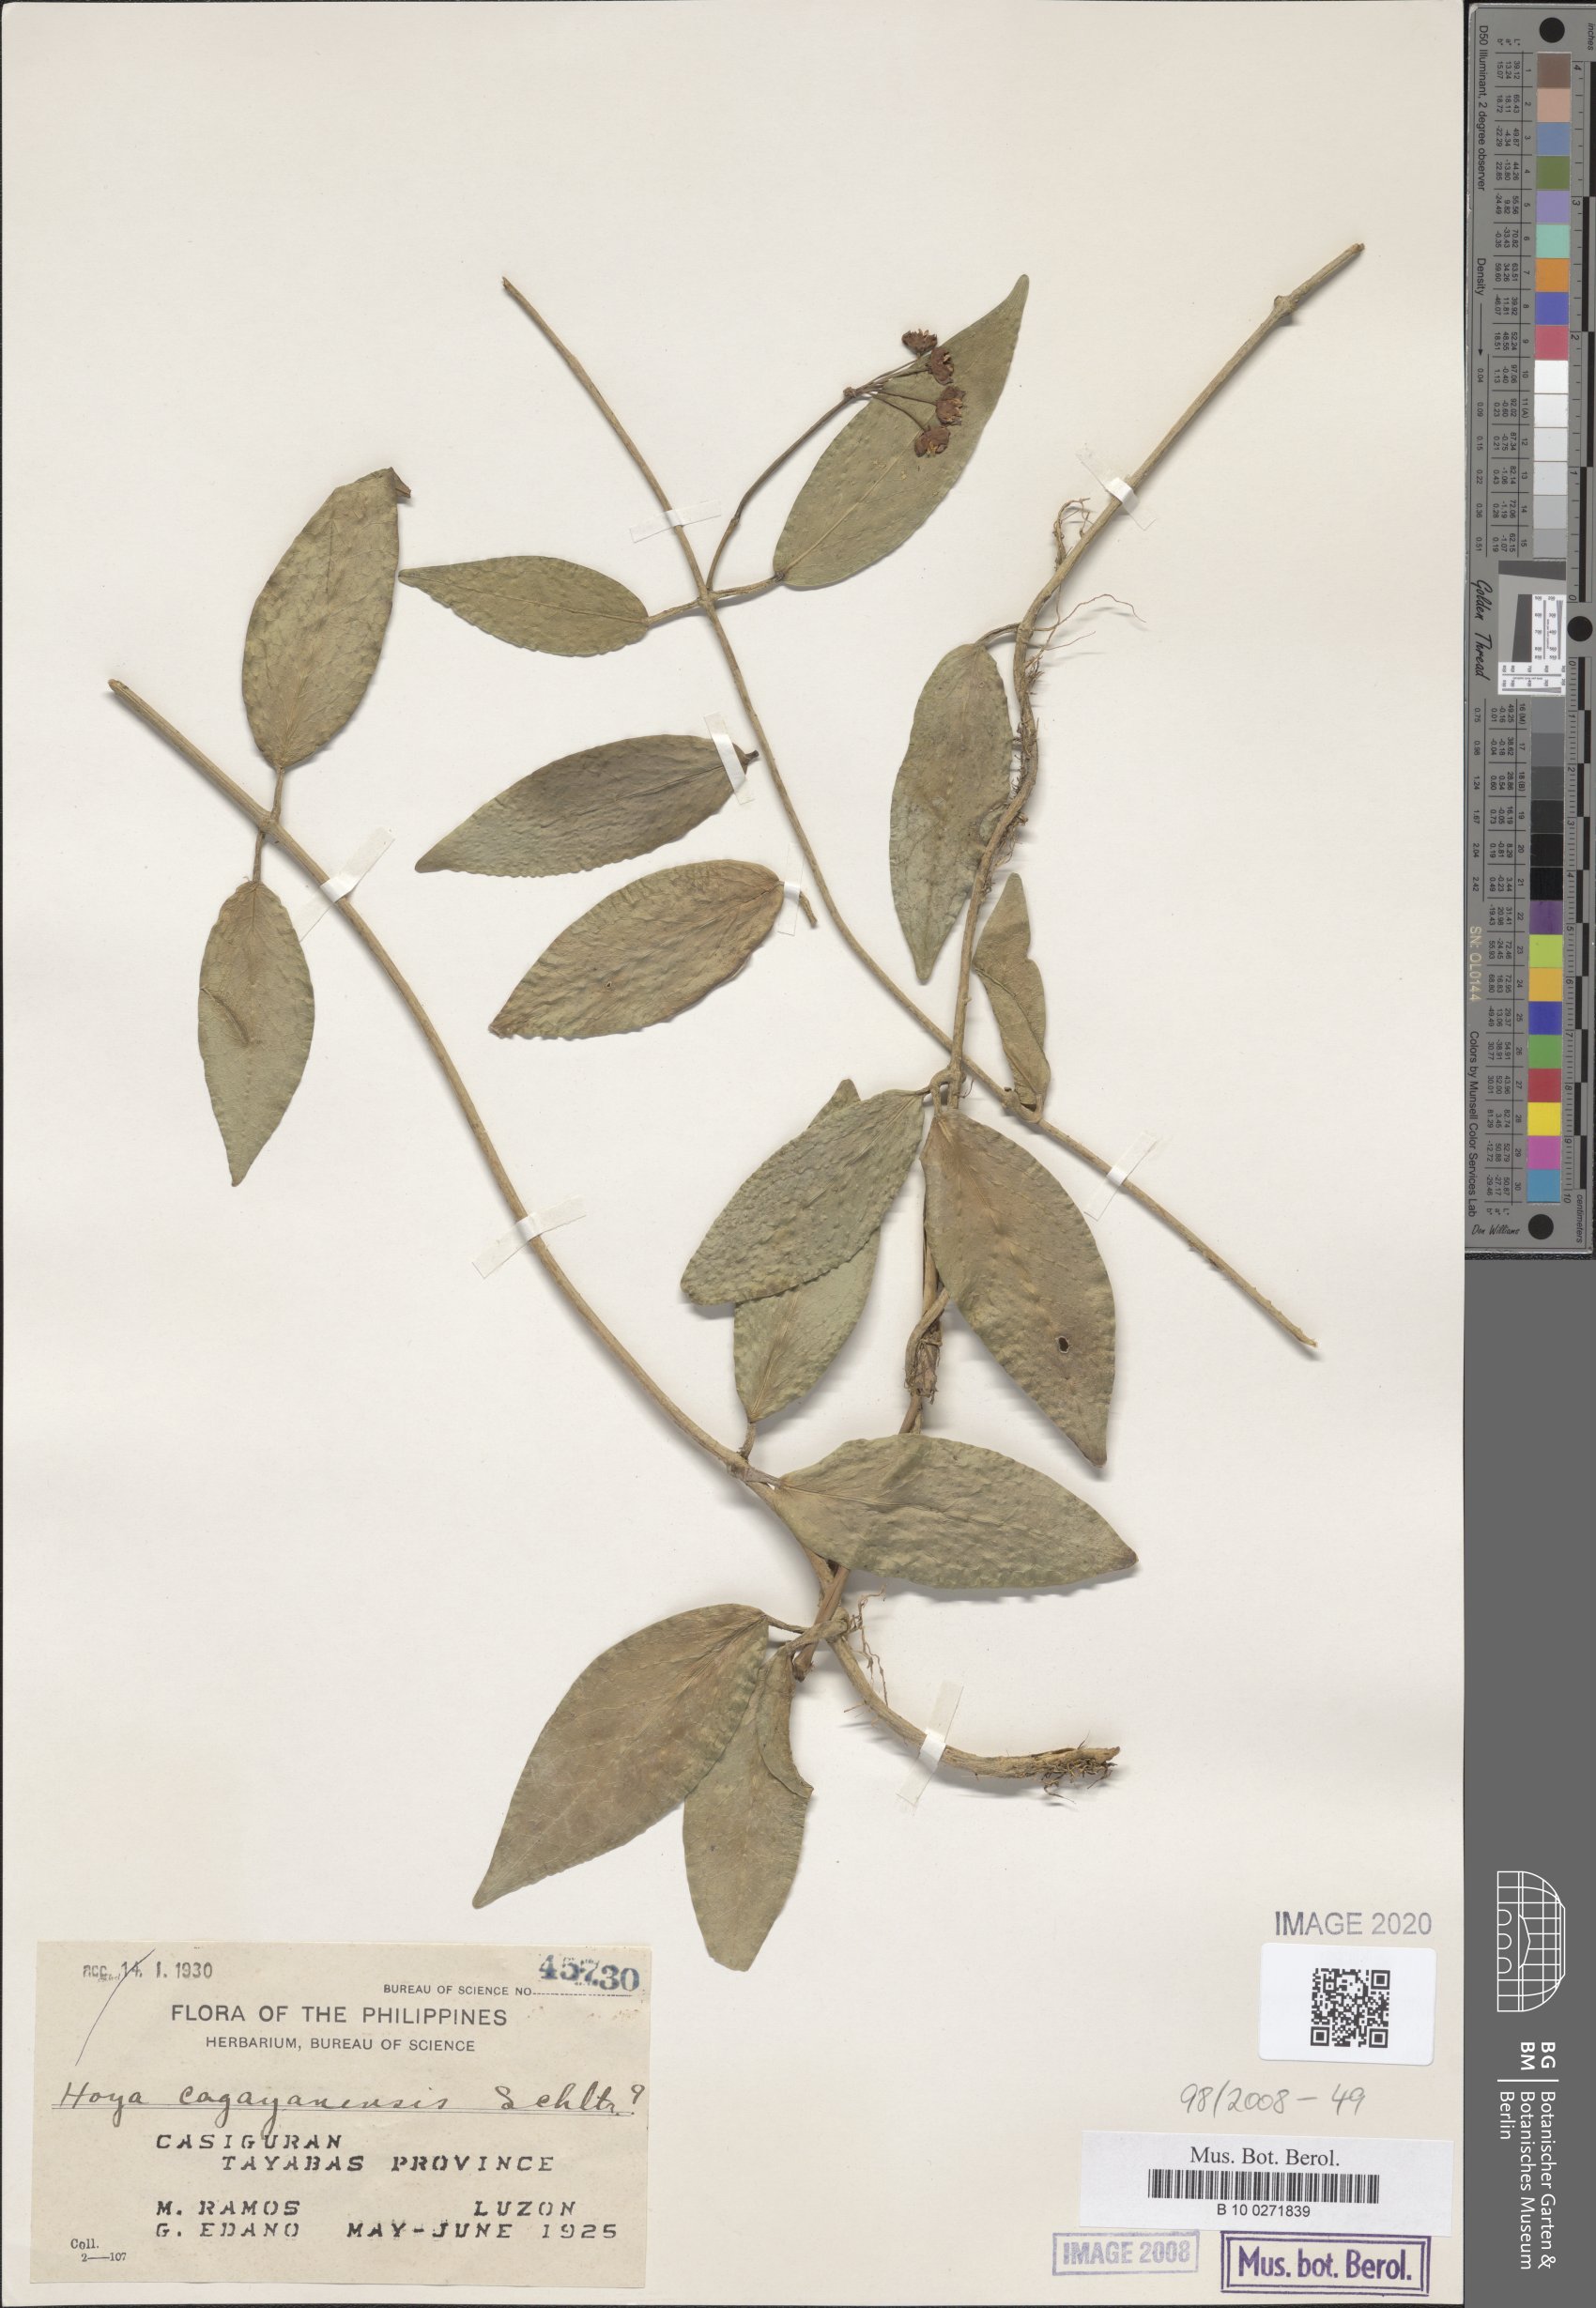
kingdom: Plantae
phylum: Tracheophyta
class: Magnoliopsida
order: Gentianales
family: Apocynaceae
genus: Hoya
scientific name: Hoya cagayanensis
